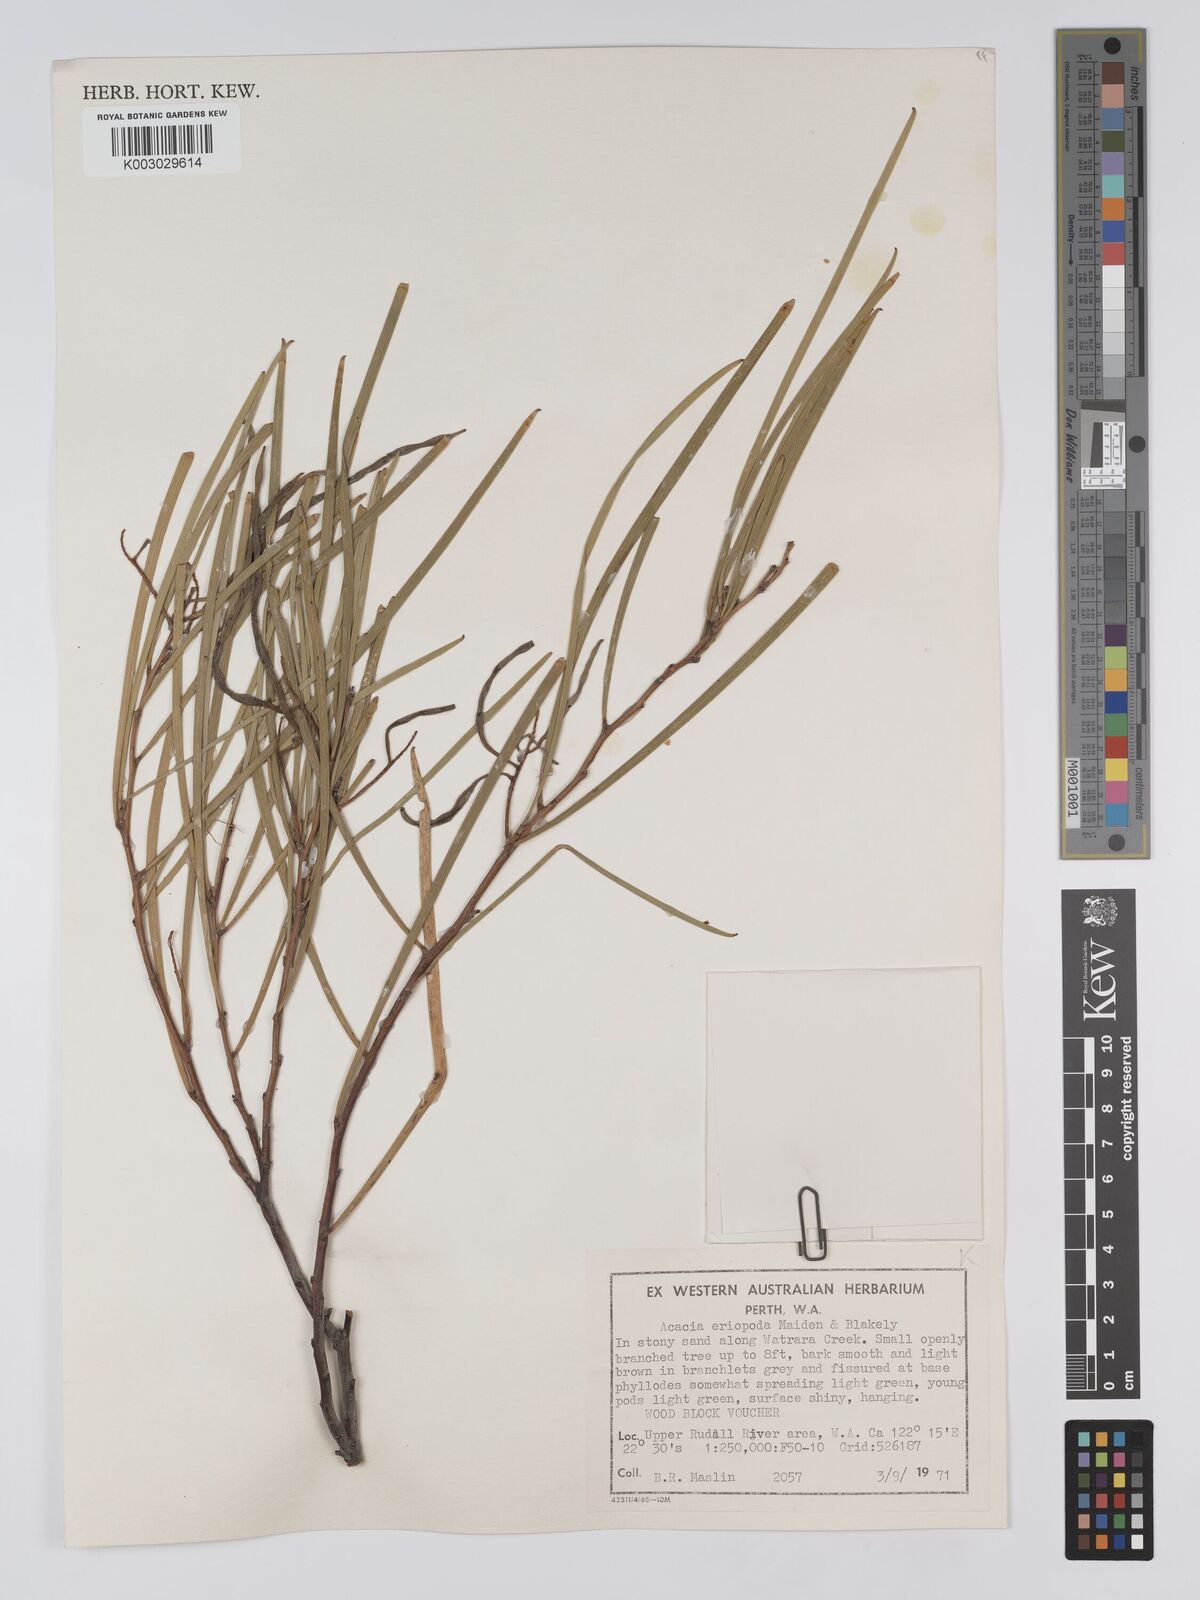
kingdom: Plantae
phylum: Tracheophyta
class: Magnoliopsida
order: Fabales
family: Fabaceae
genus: Acacia
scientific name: Acacia eriopoda
